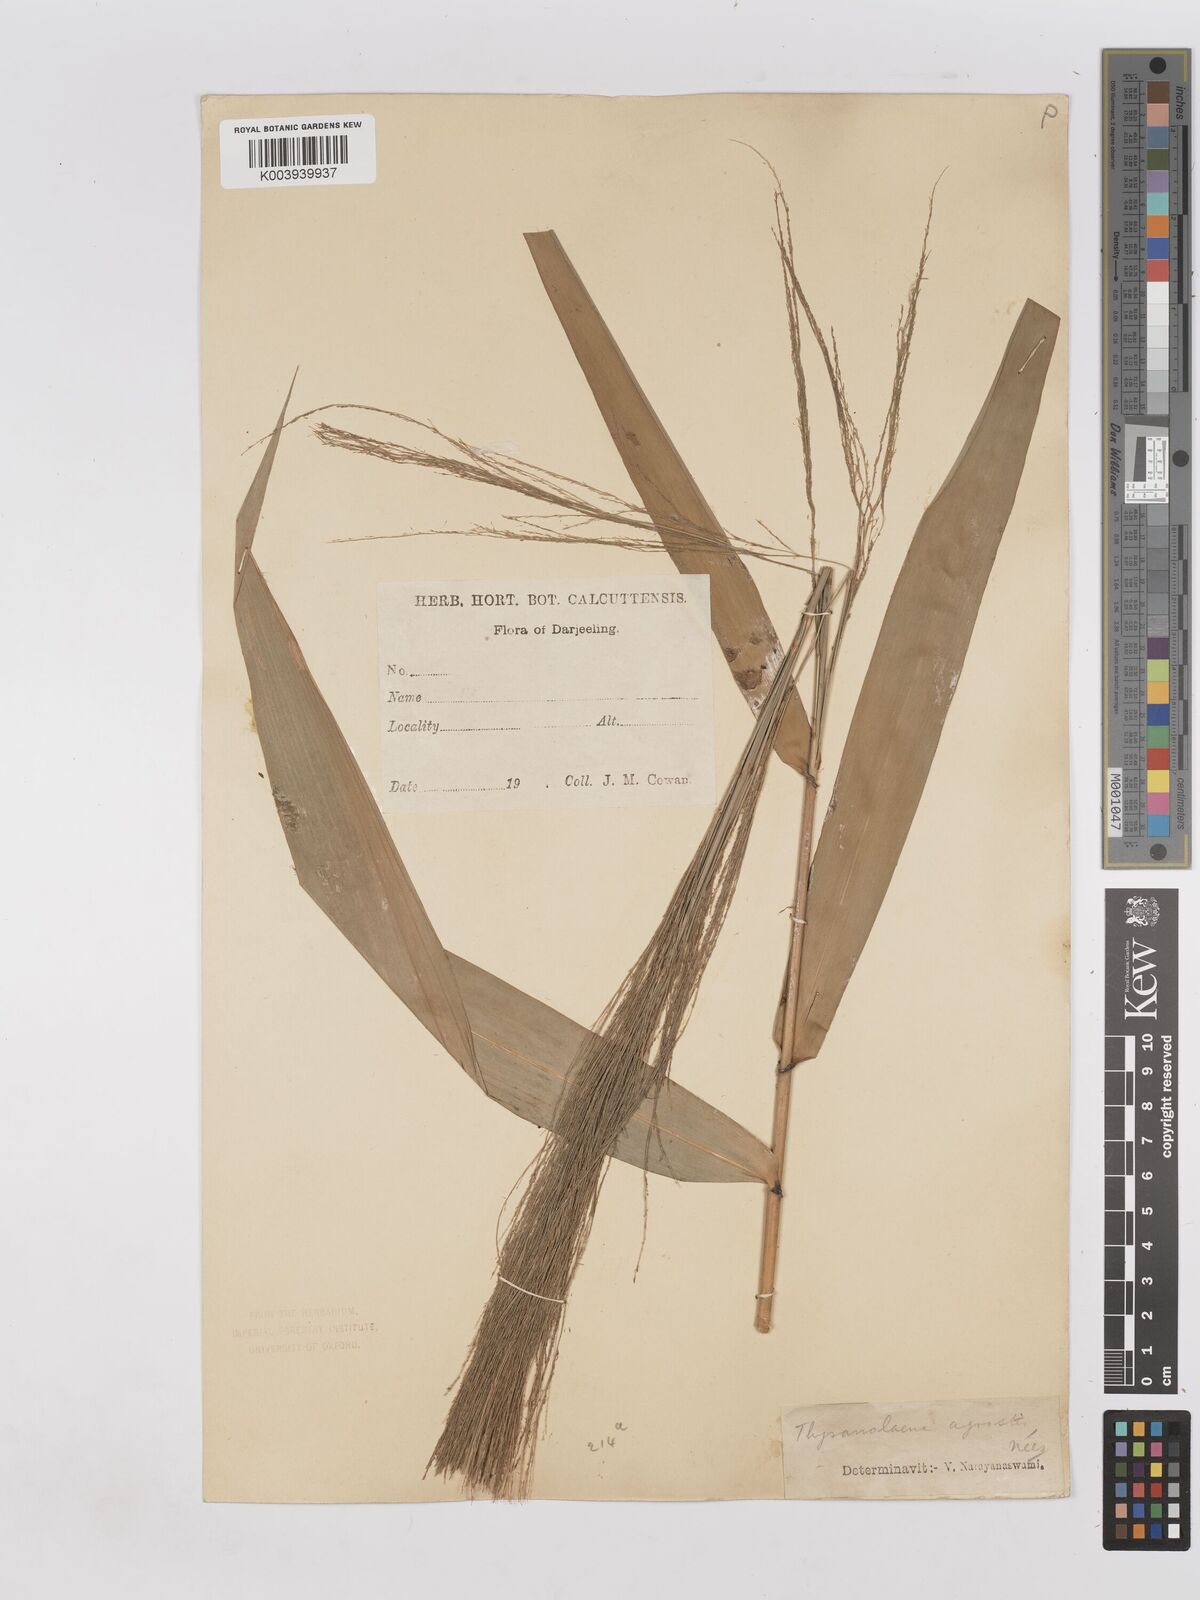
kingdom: Plantae
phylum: Tracheophyta
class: Liliopsida
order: Poales
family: Poaceae
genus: Thysanolaena
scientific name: Thysanolaena latifolia
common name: Tiger grass
